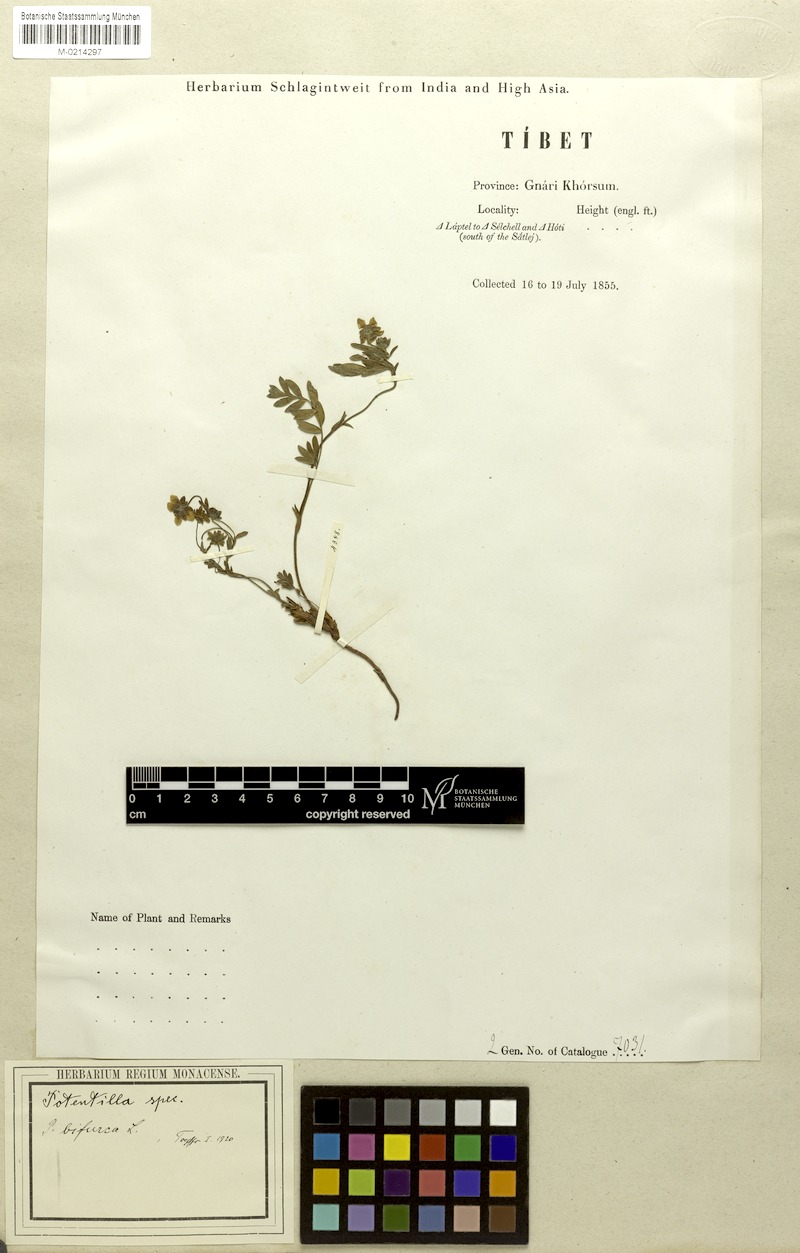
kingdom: Plantae
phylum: Tracheophyta
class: Magnoliopsida
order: Rosales
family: Rosaceae
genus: Sibbaldianthe
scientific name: Sibbaldianthe bifurca
